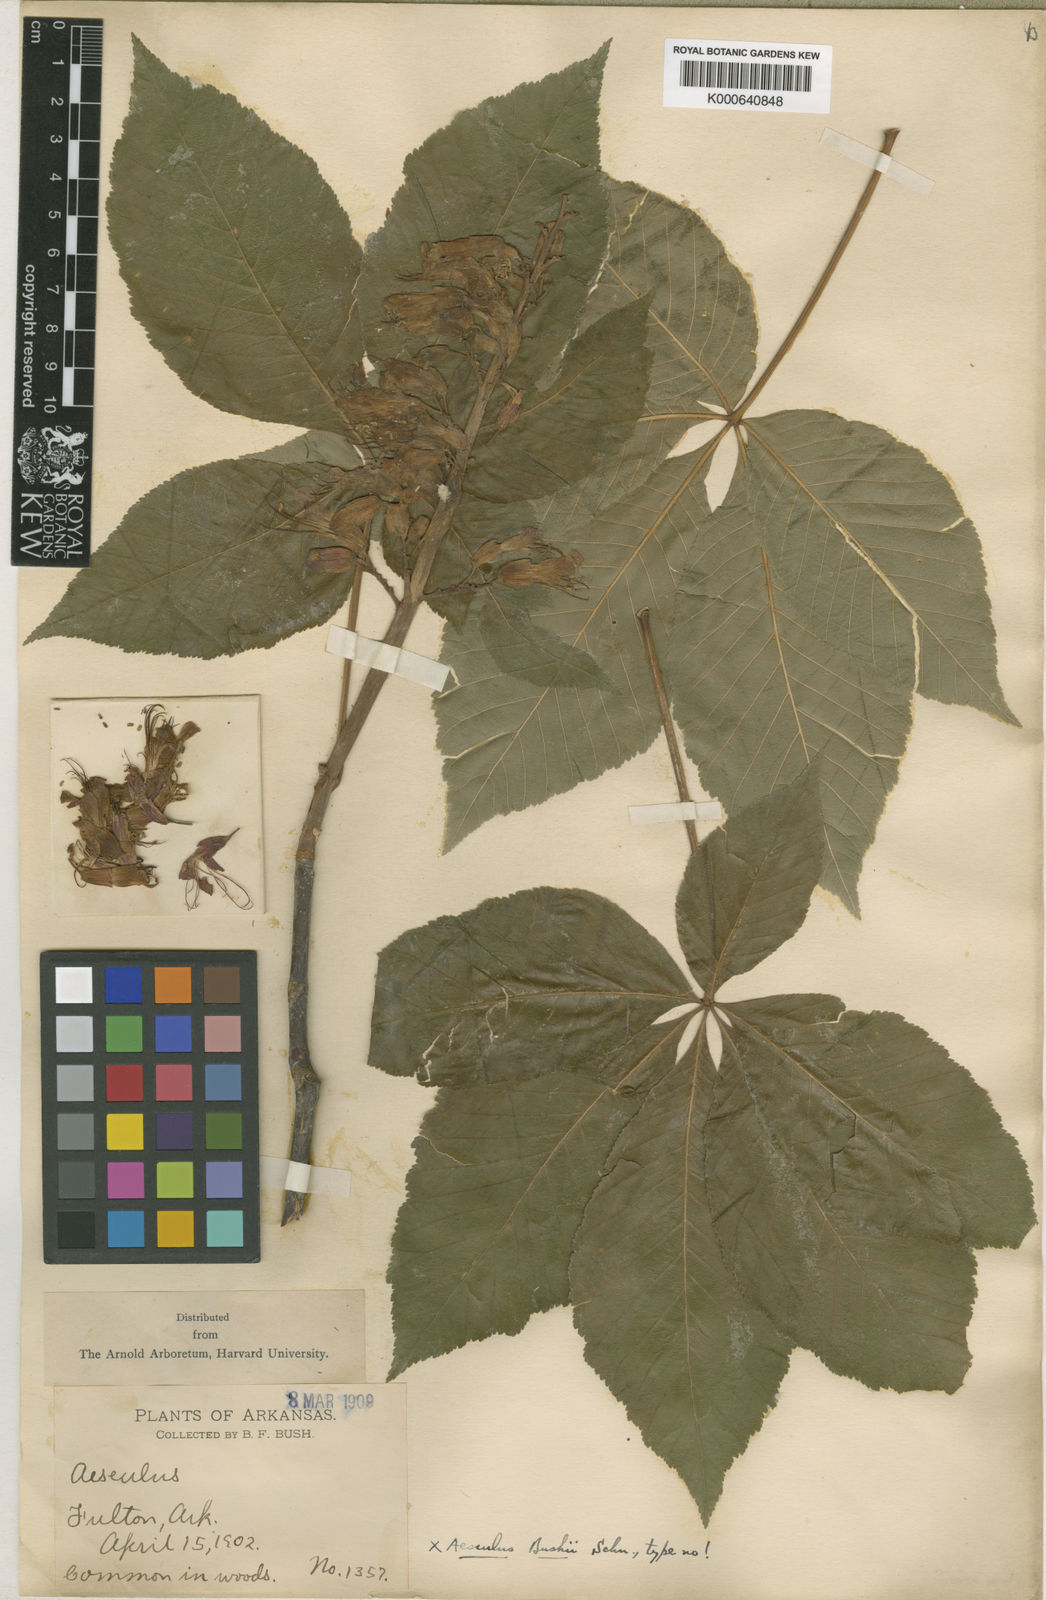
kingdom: Plantae
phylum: Tracheophyta
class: Magnoliopsida
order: Sapindales
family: Sapindaceae
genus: Aesculus
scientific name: Aesculus glabra
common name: Ohio buckeye
